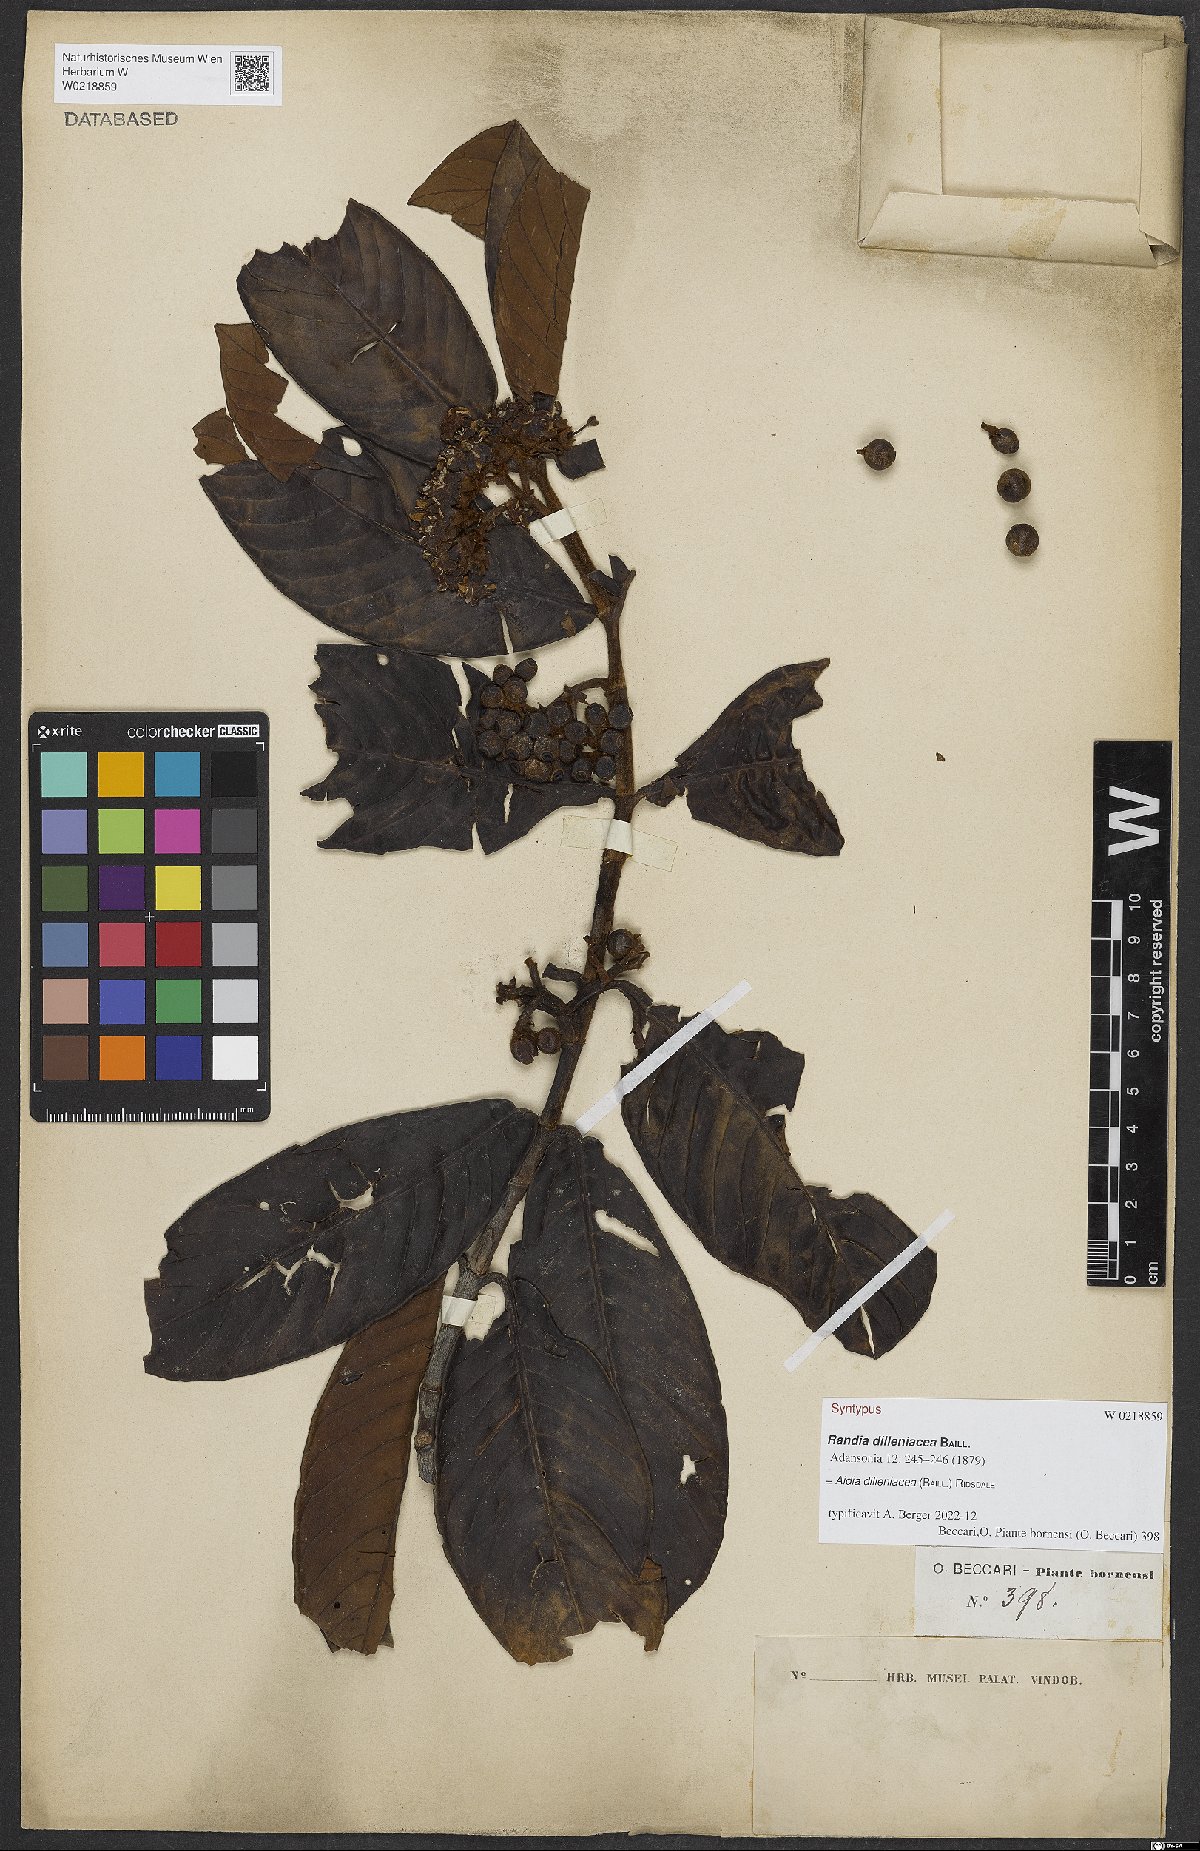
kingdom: Plantae
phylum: Tracheophyta
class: Magnoliopsida
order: Gentianales
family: Rubiaceae
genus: Aidia
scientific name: Aidia dilleniacea
